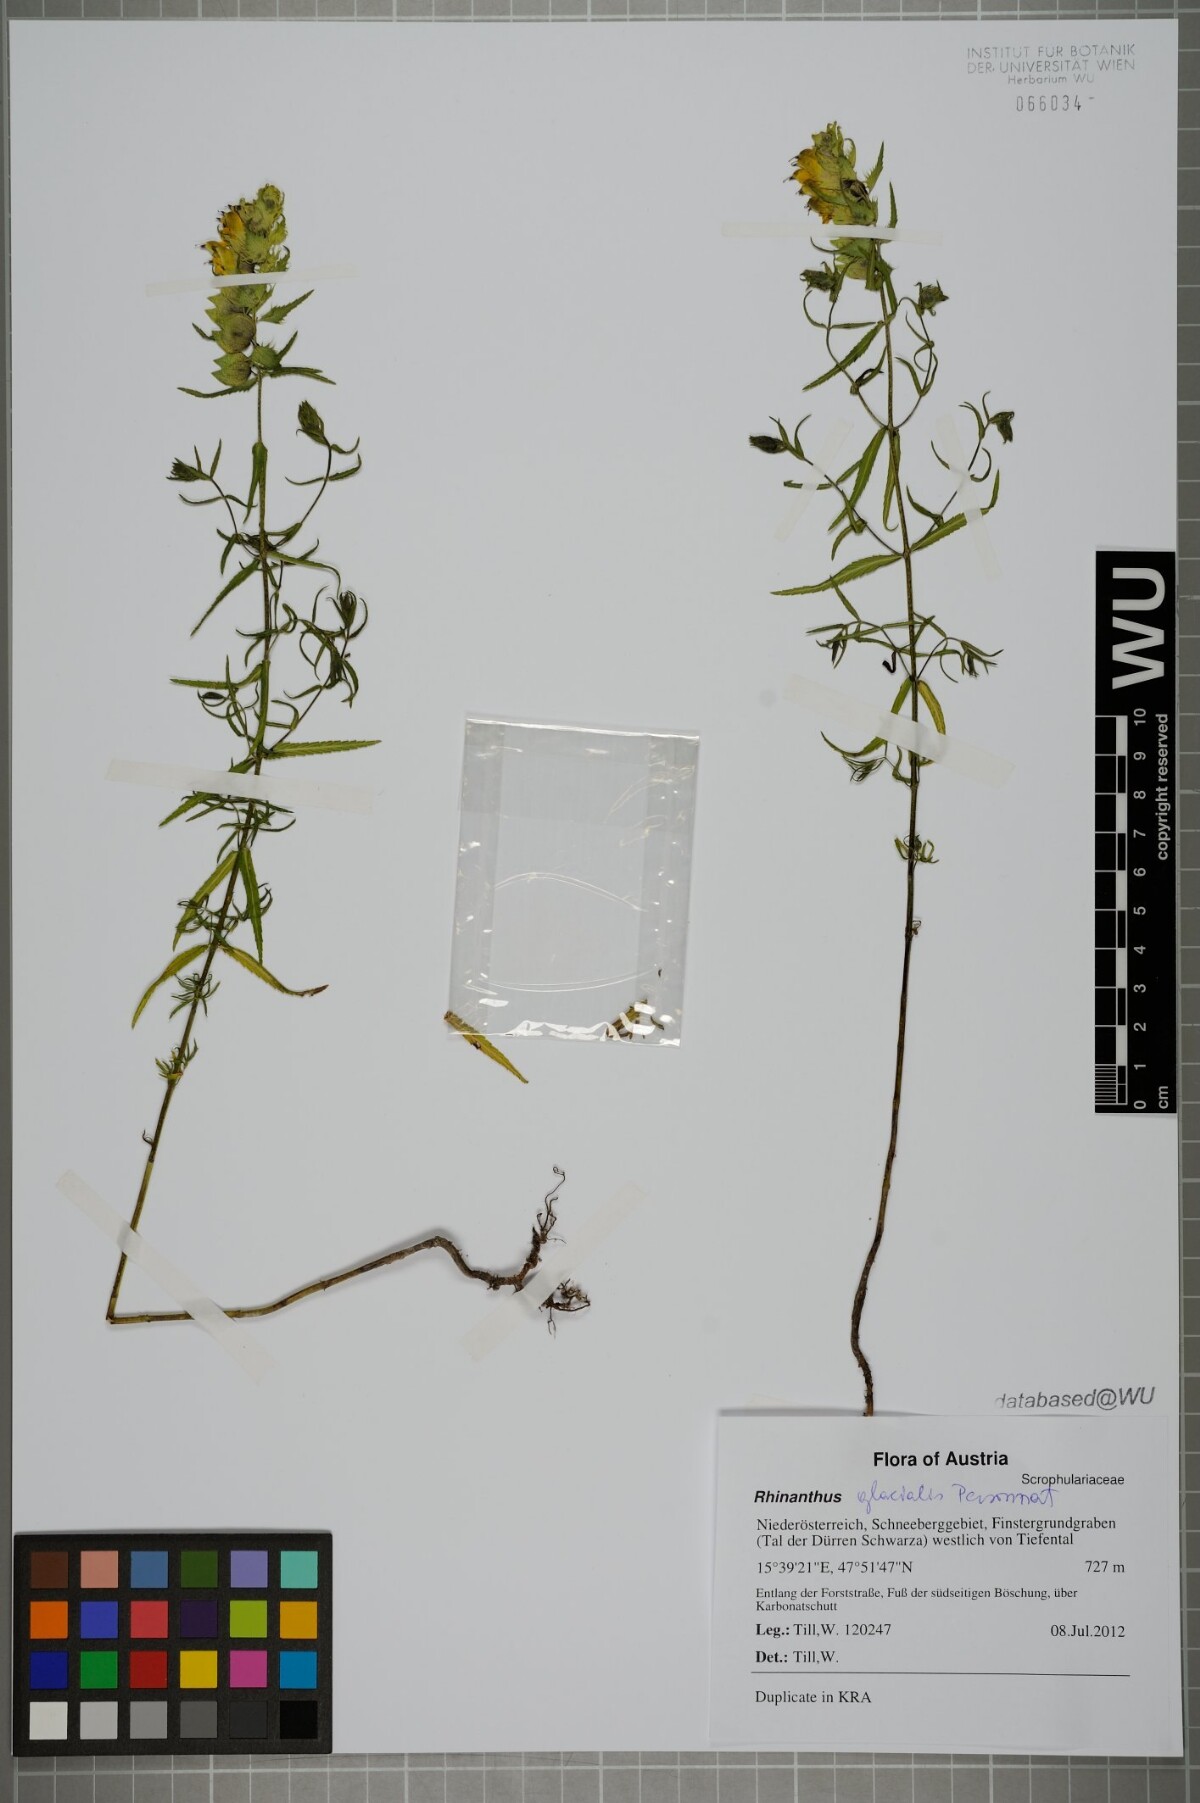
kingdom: Plantae
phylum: Tracheophyta
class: Magnoliopsida
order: Lamiales
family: Orobanchaceae
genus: Rhinanthus
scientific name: Rhinanthus glacialis
